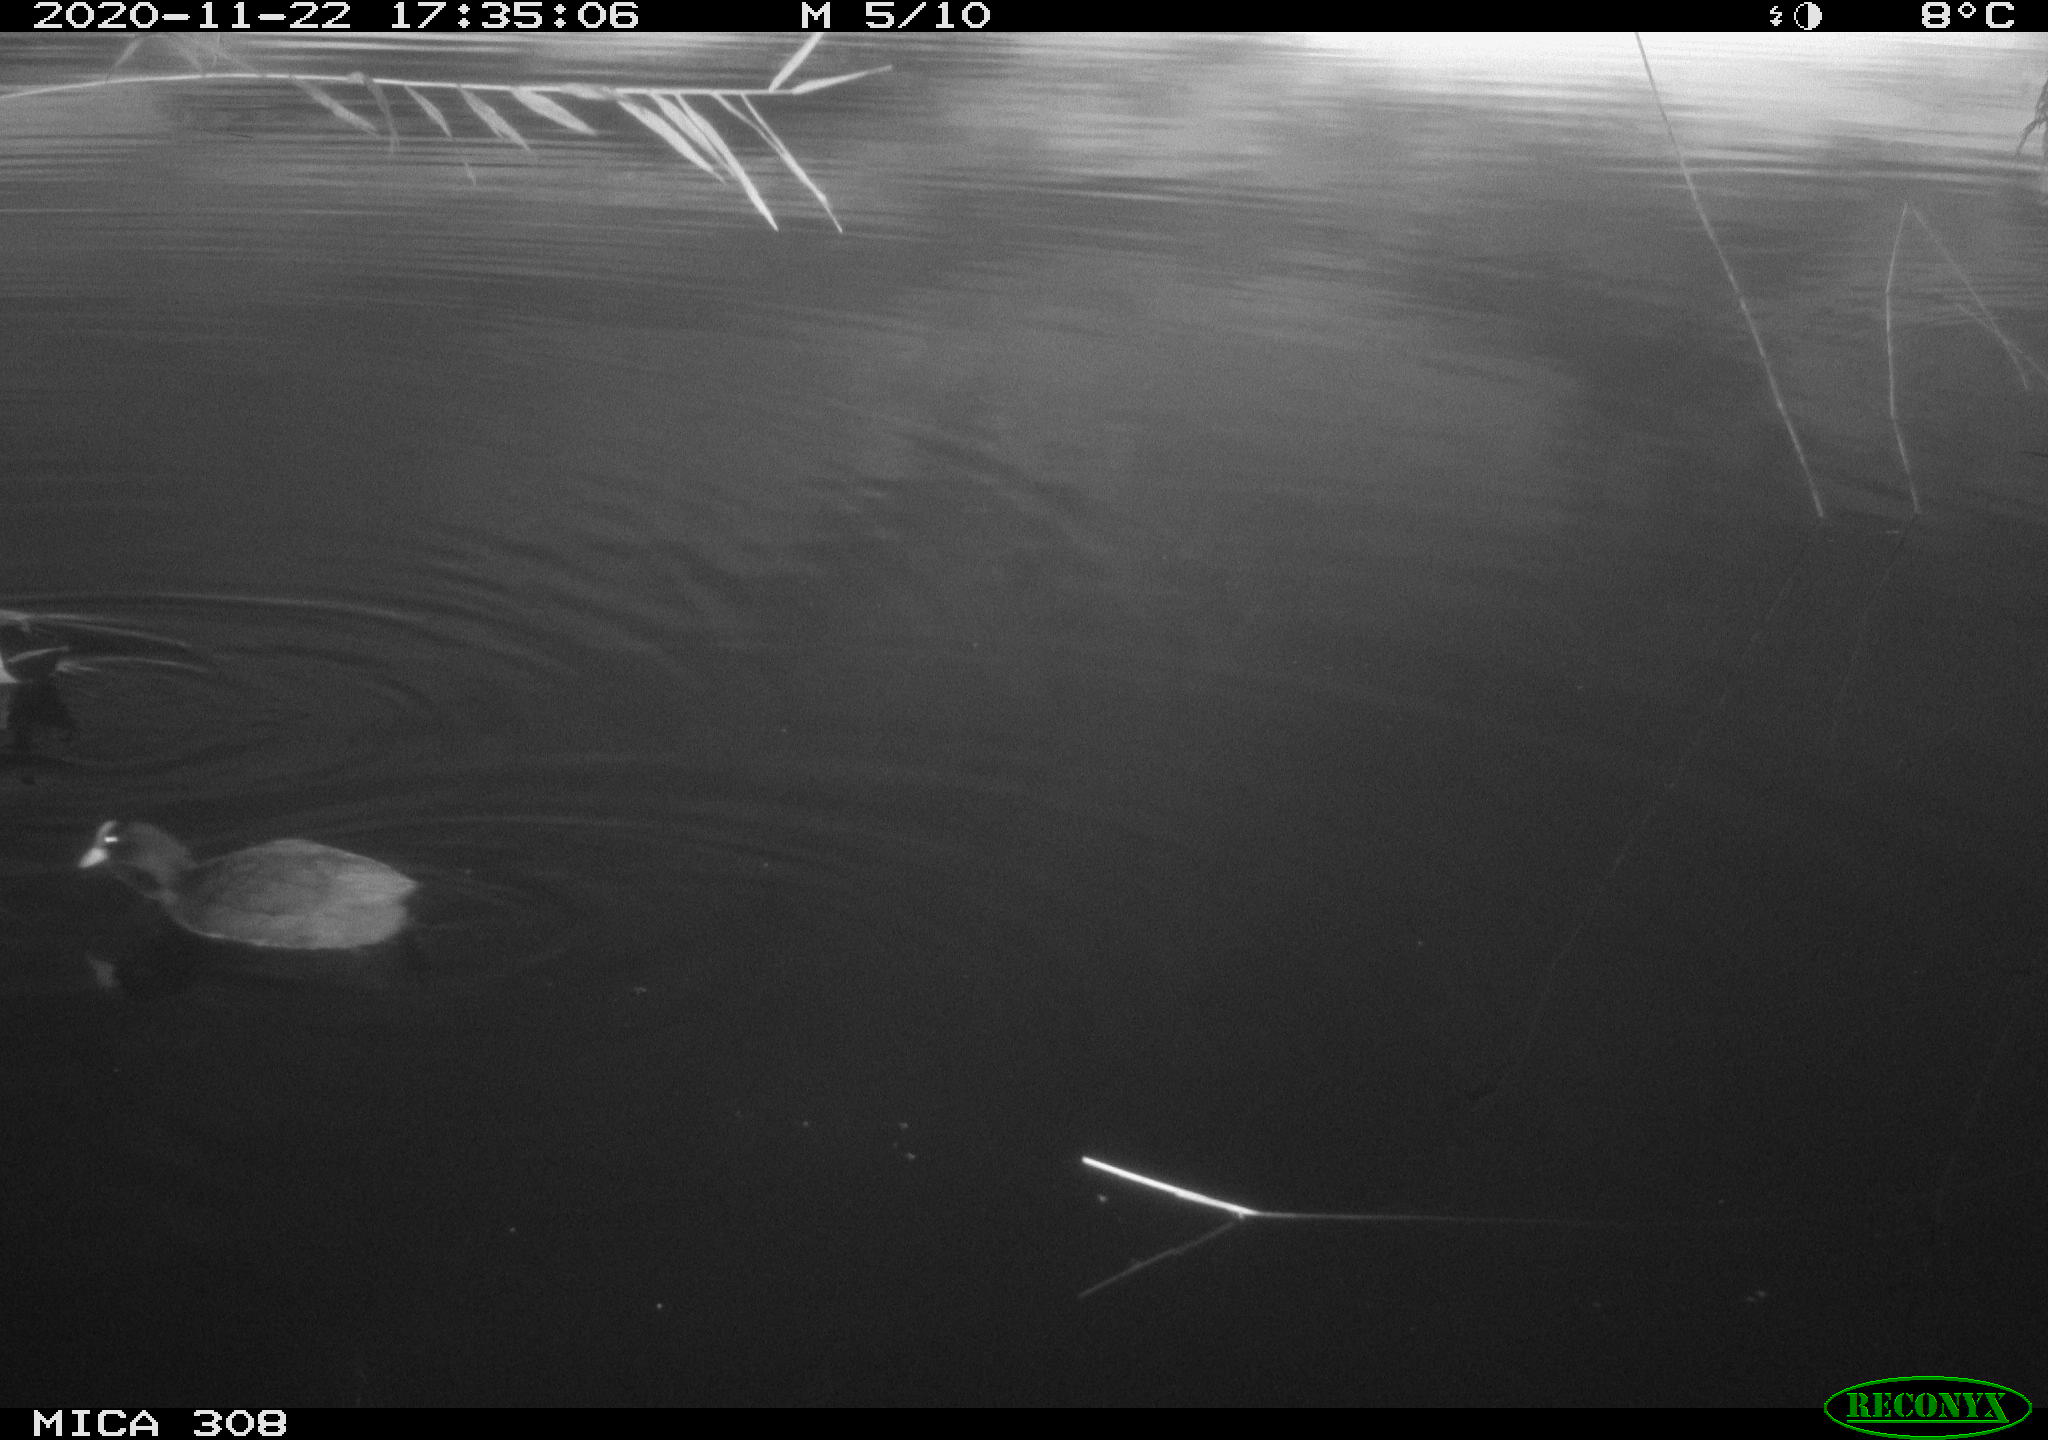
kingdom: Animalia
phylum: Chordata
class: Aves
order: Gruiformes
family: Rallidae
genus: Fulica
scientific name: Fulica atra
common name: Eurasian coot
